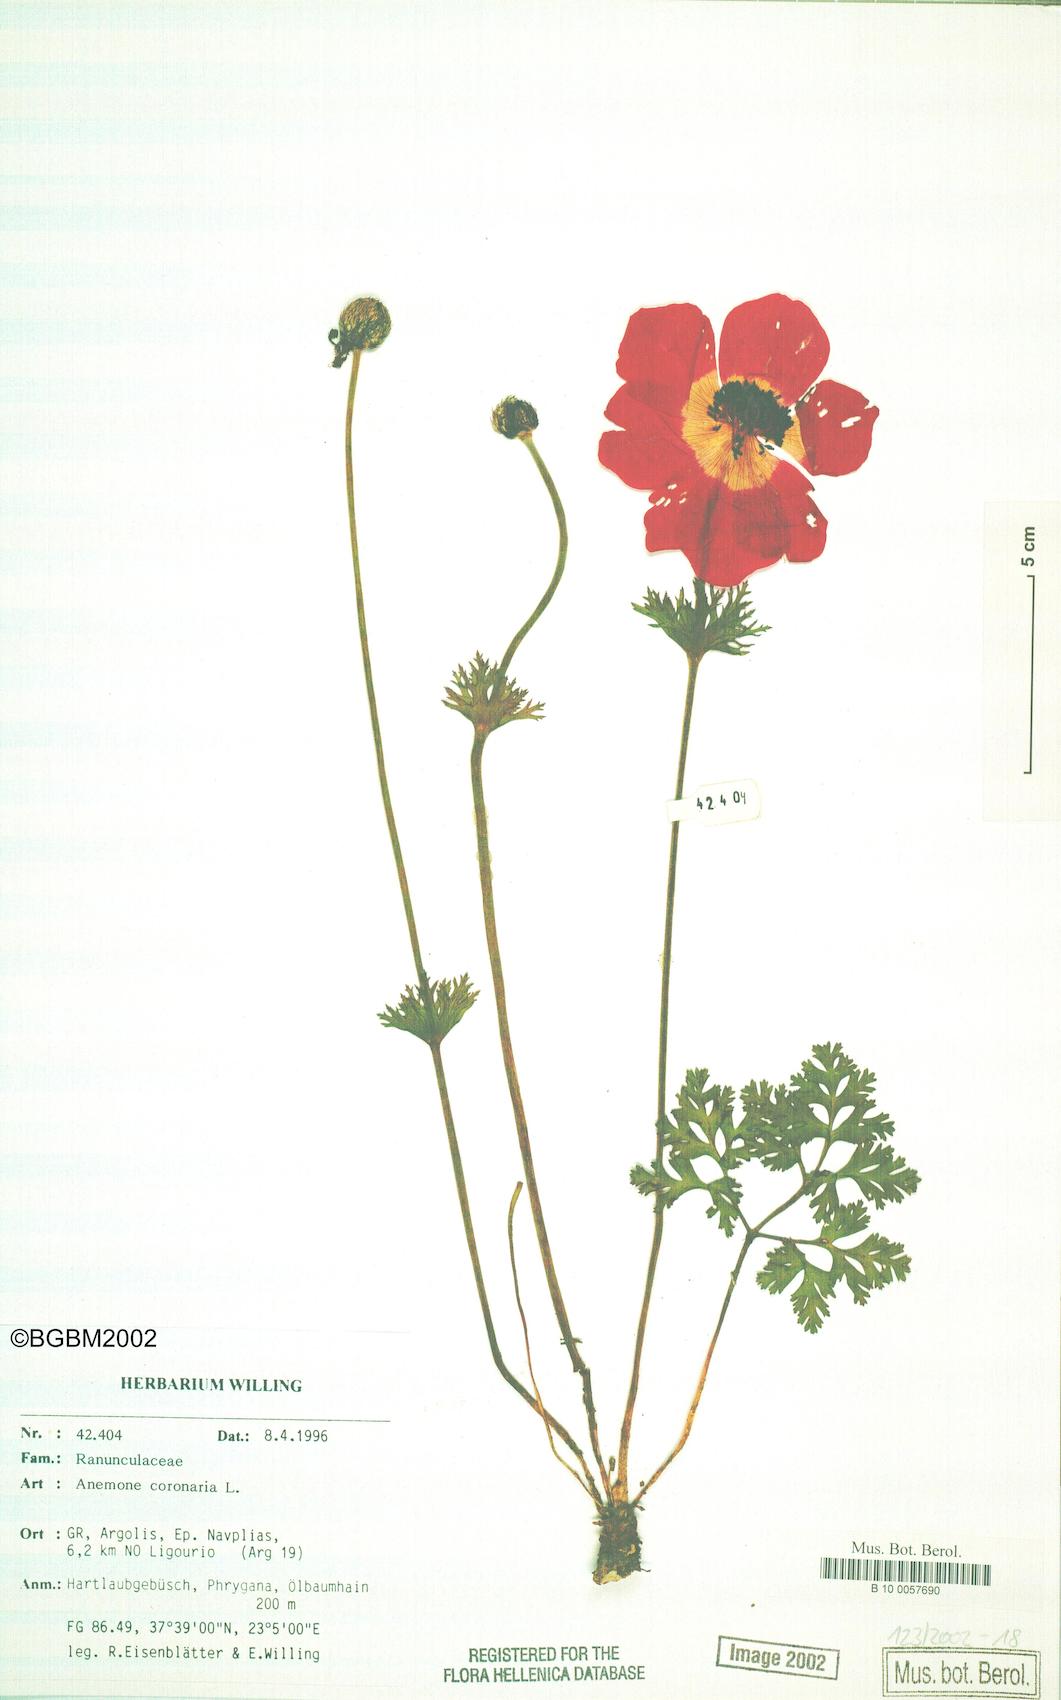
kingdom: Plantae
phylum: Tracheophyta
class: Magnoliopsida
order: Ranunculales
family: Ranunculaceae
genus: Anemone
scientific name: Anemone coronaria
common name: Poppy anemone
